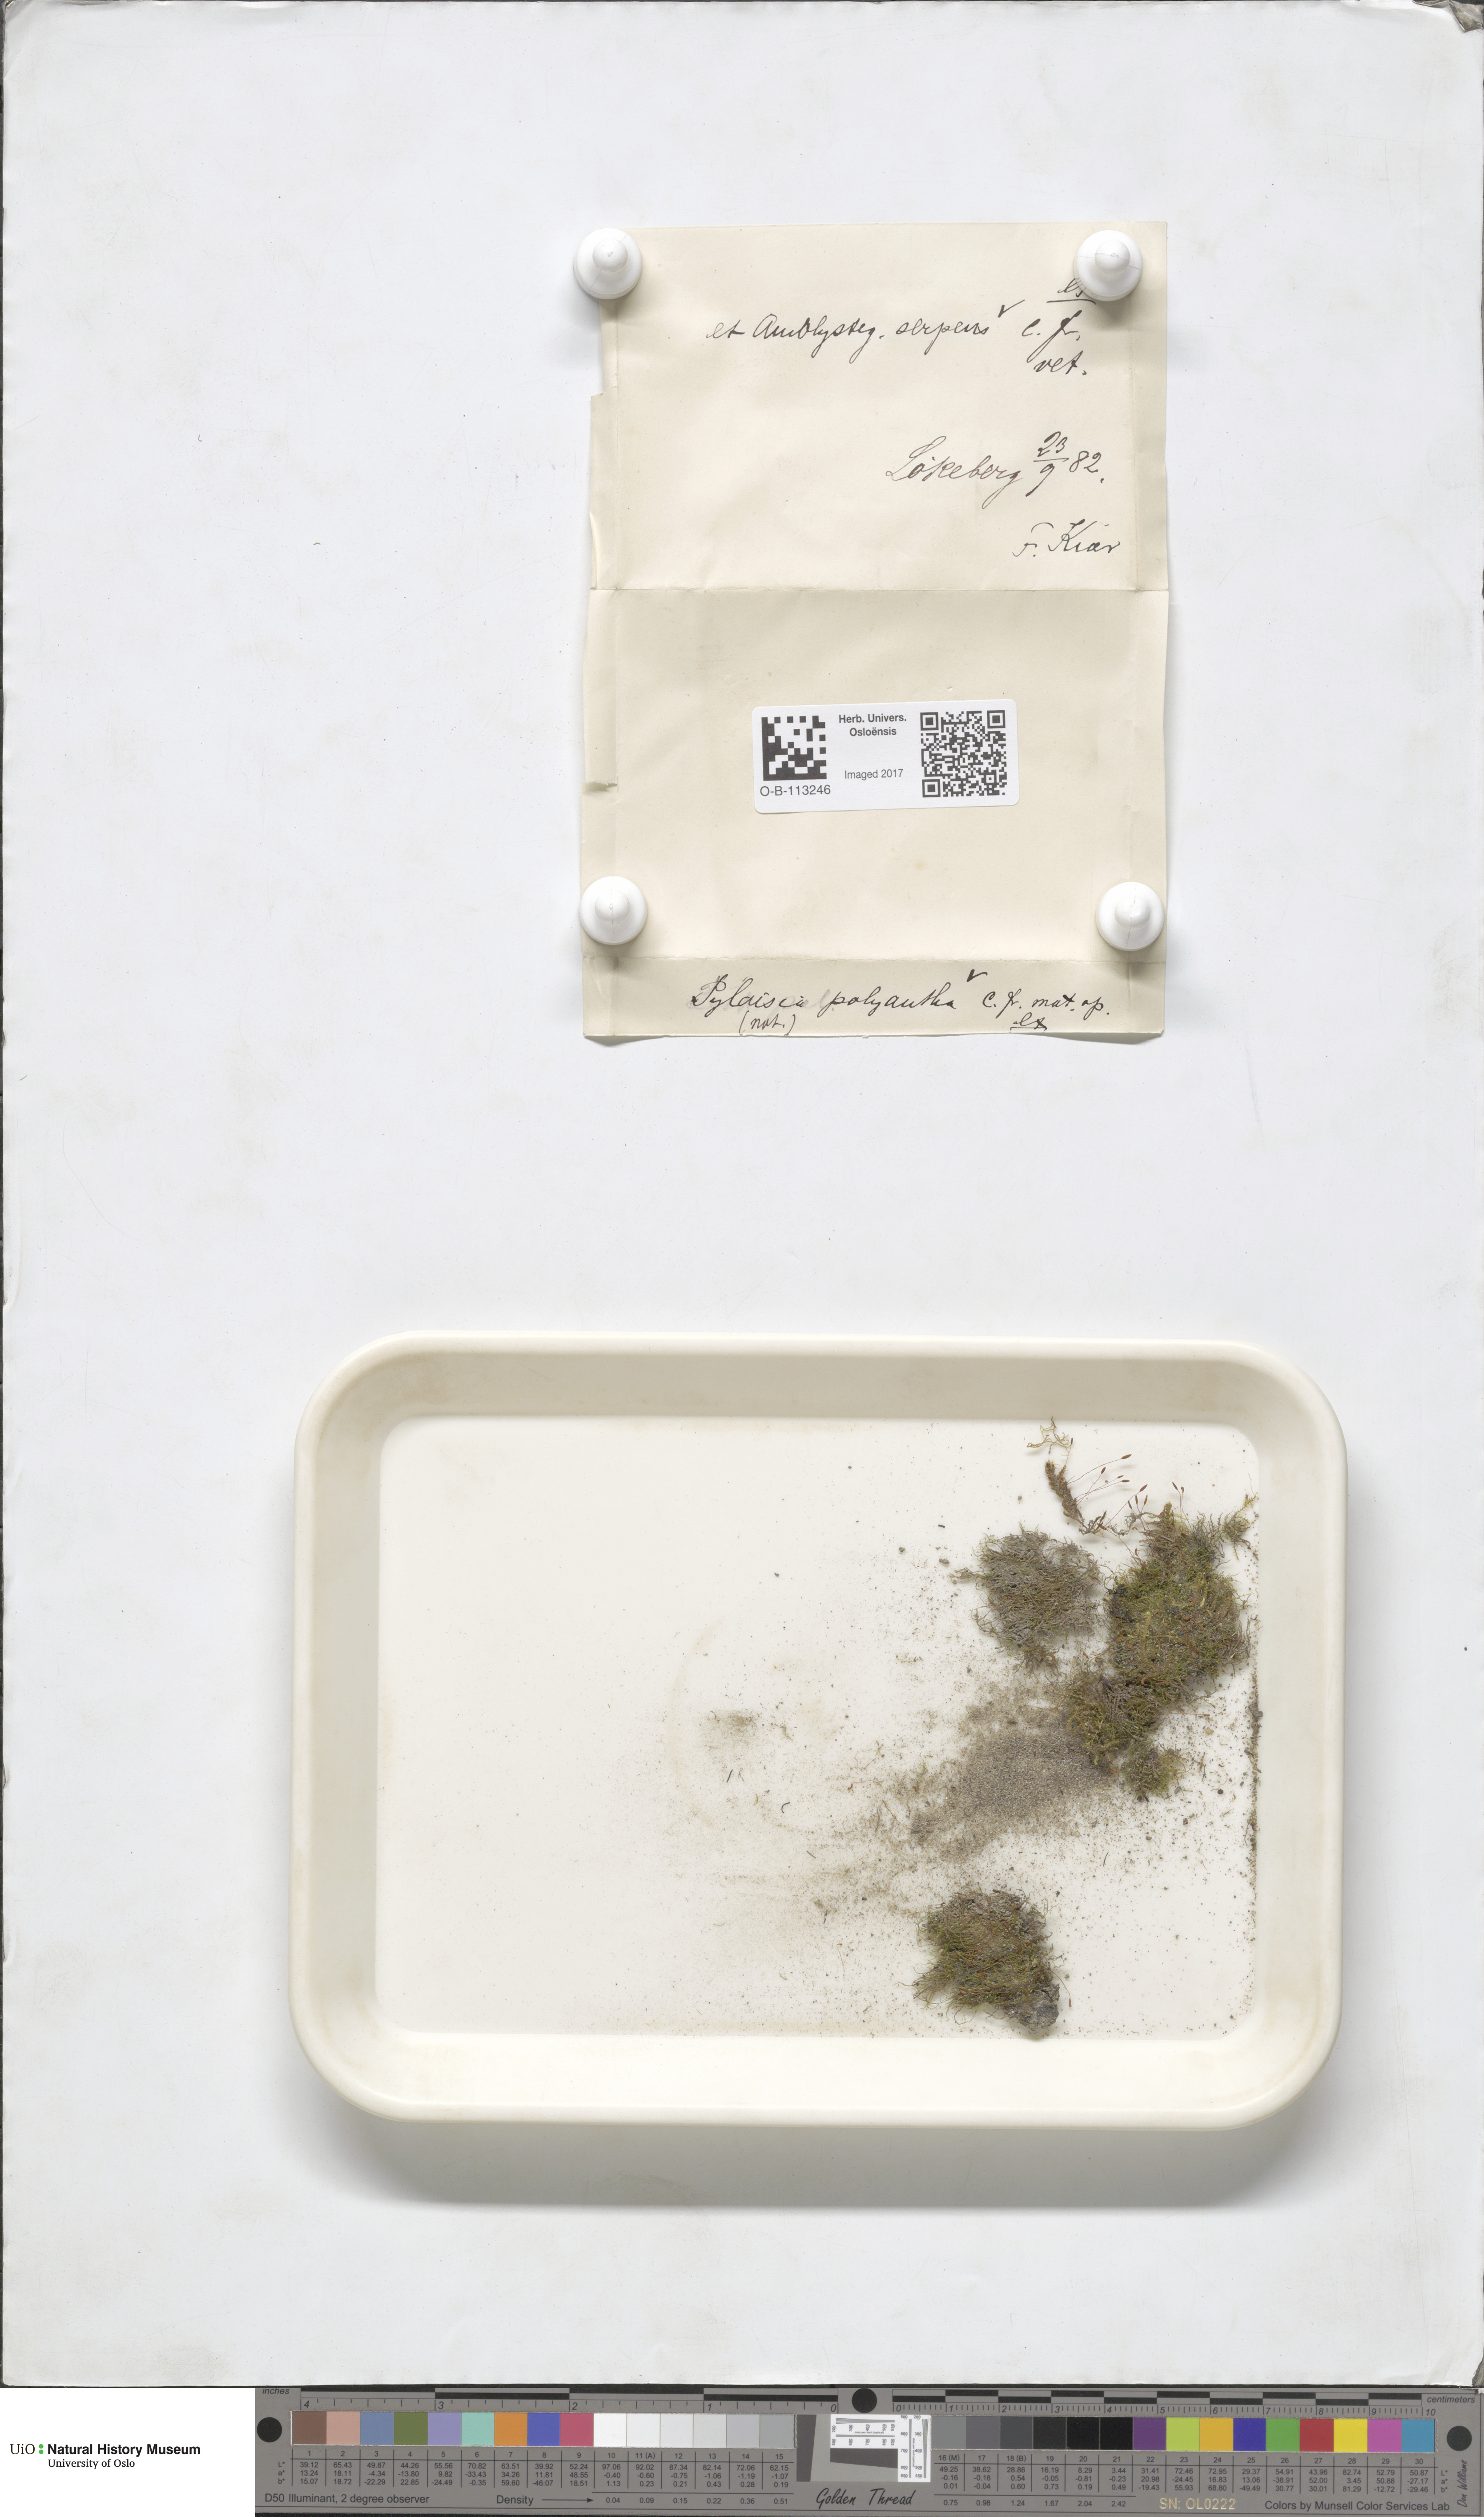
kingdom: Plantae
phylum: Bryophyta
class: Bryopsida
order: Hypnales
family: Amblystegiaceae
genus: Amblystegium
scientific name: Amblystegium serpens
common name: Jurkatzka's feather moss
